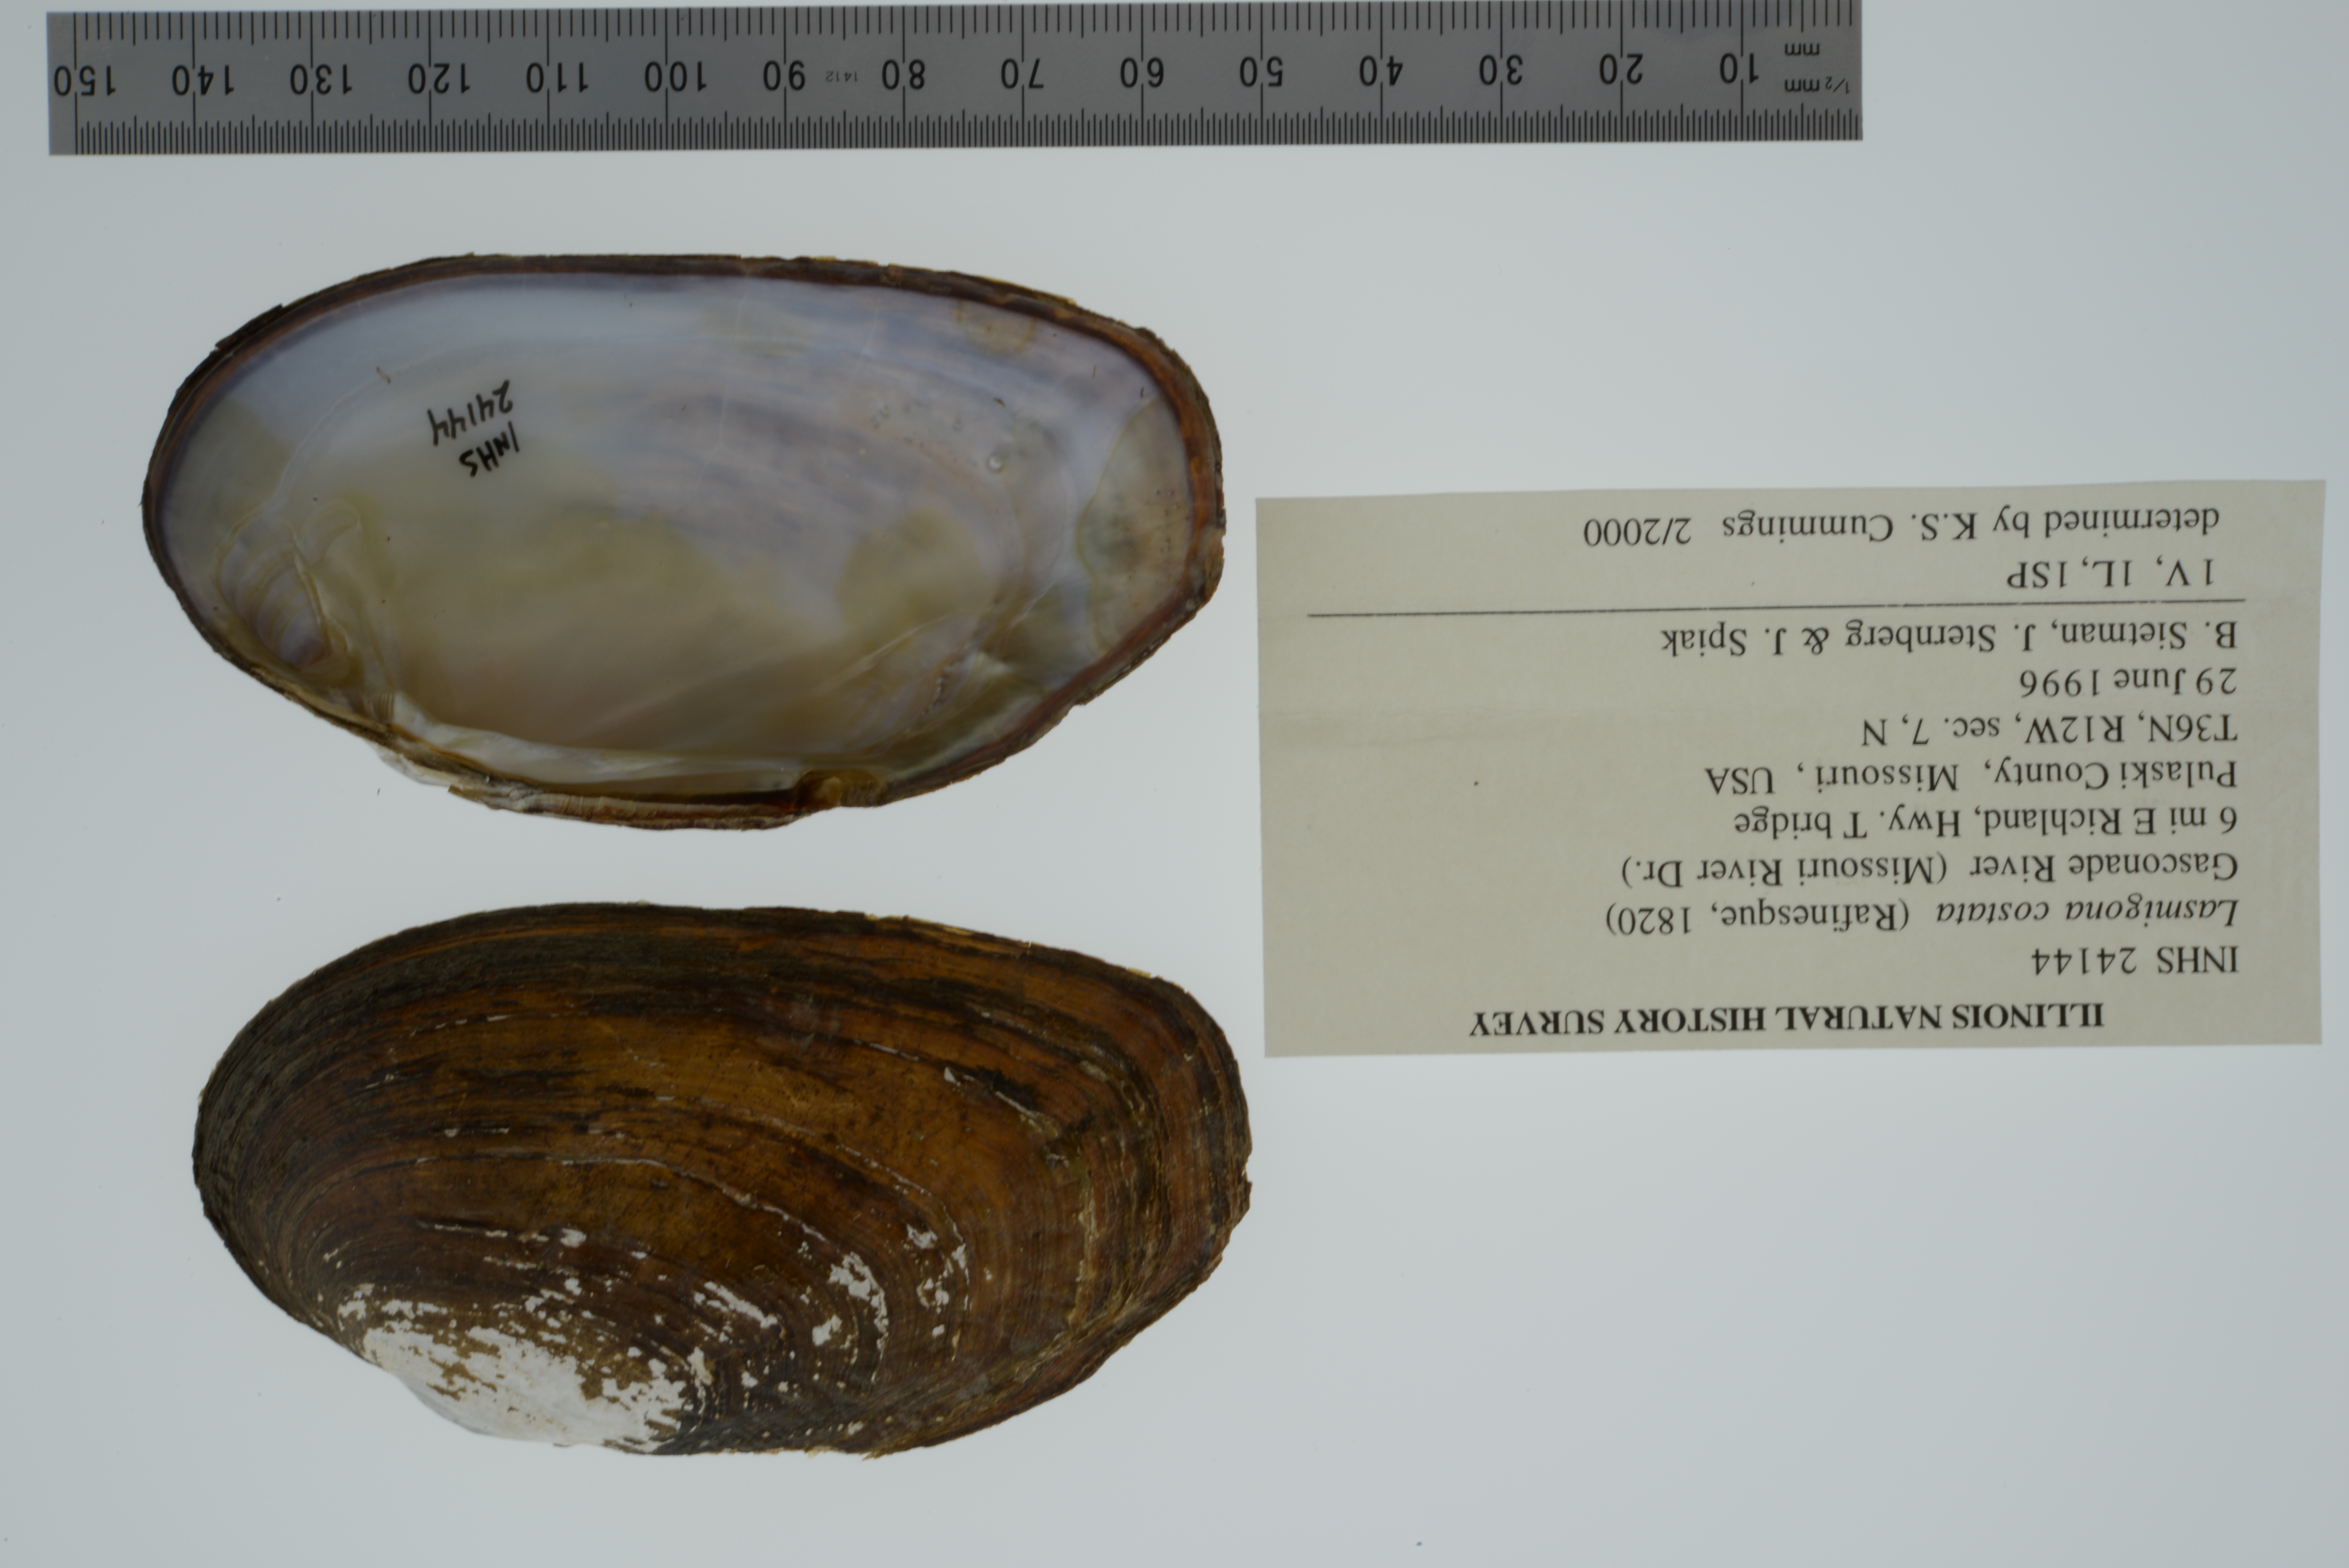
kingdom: Animalia
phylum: Mollusca
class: Bivalvia
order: Unionida
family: Unionidae
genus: Lasmigona
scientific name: Lasmigona costata
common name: Flutedshell
